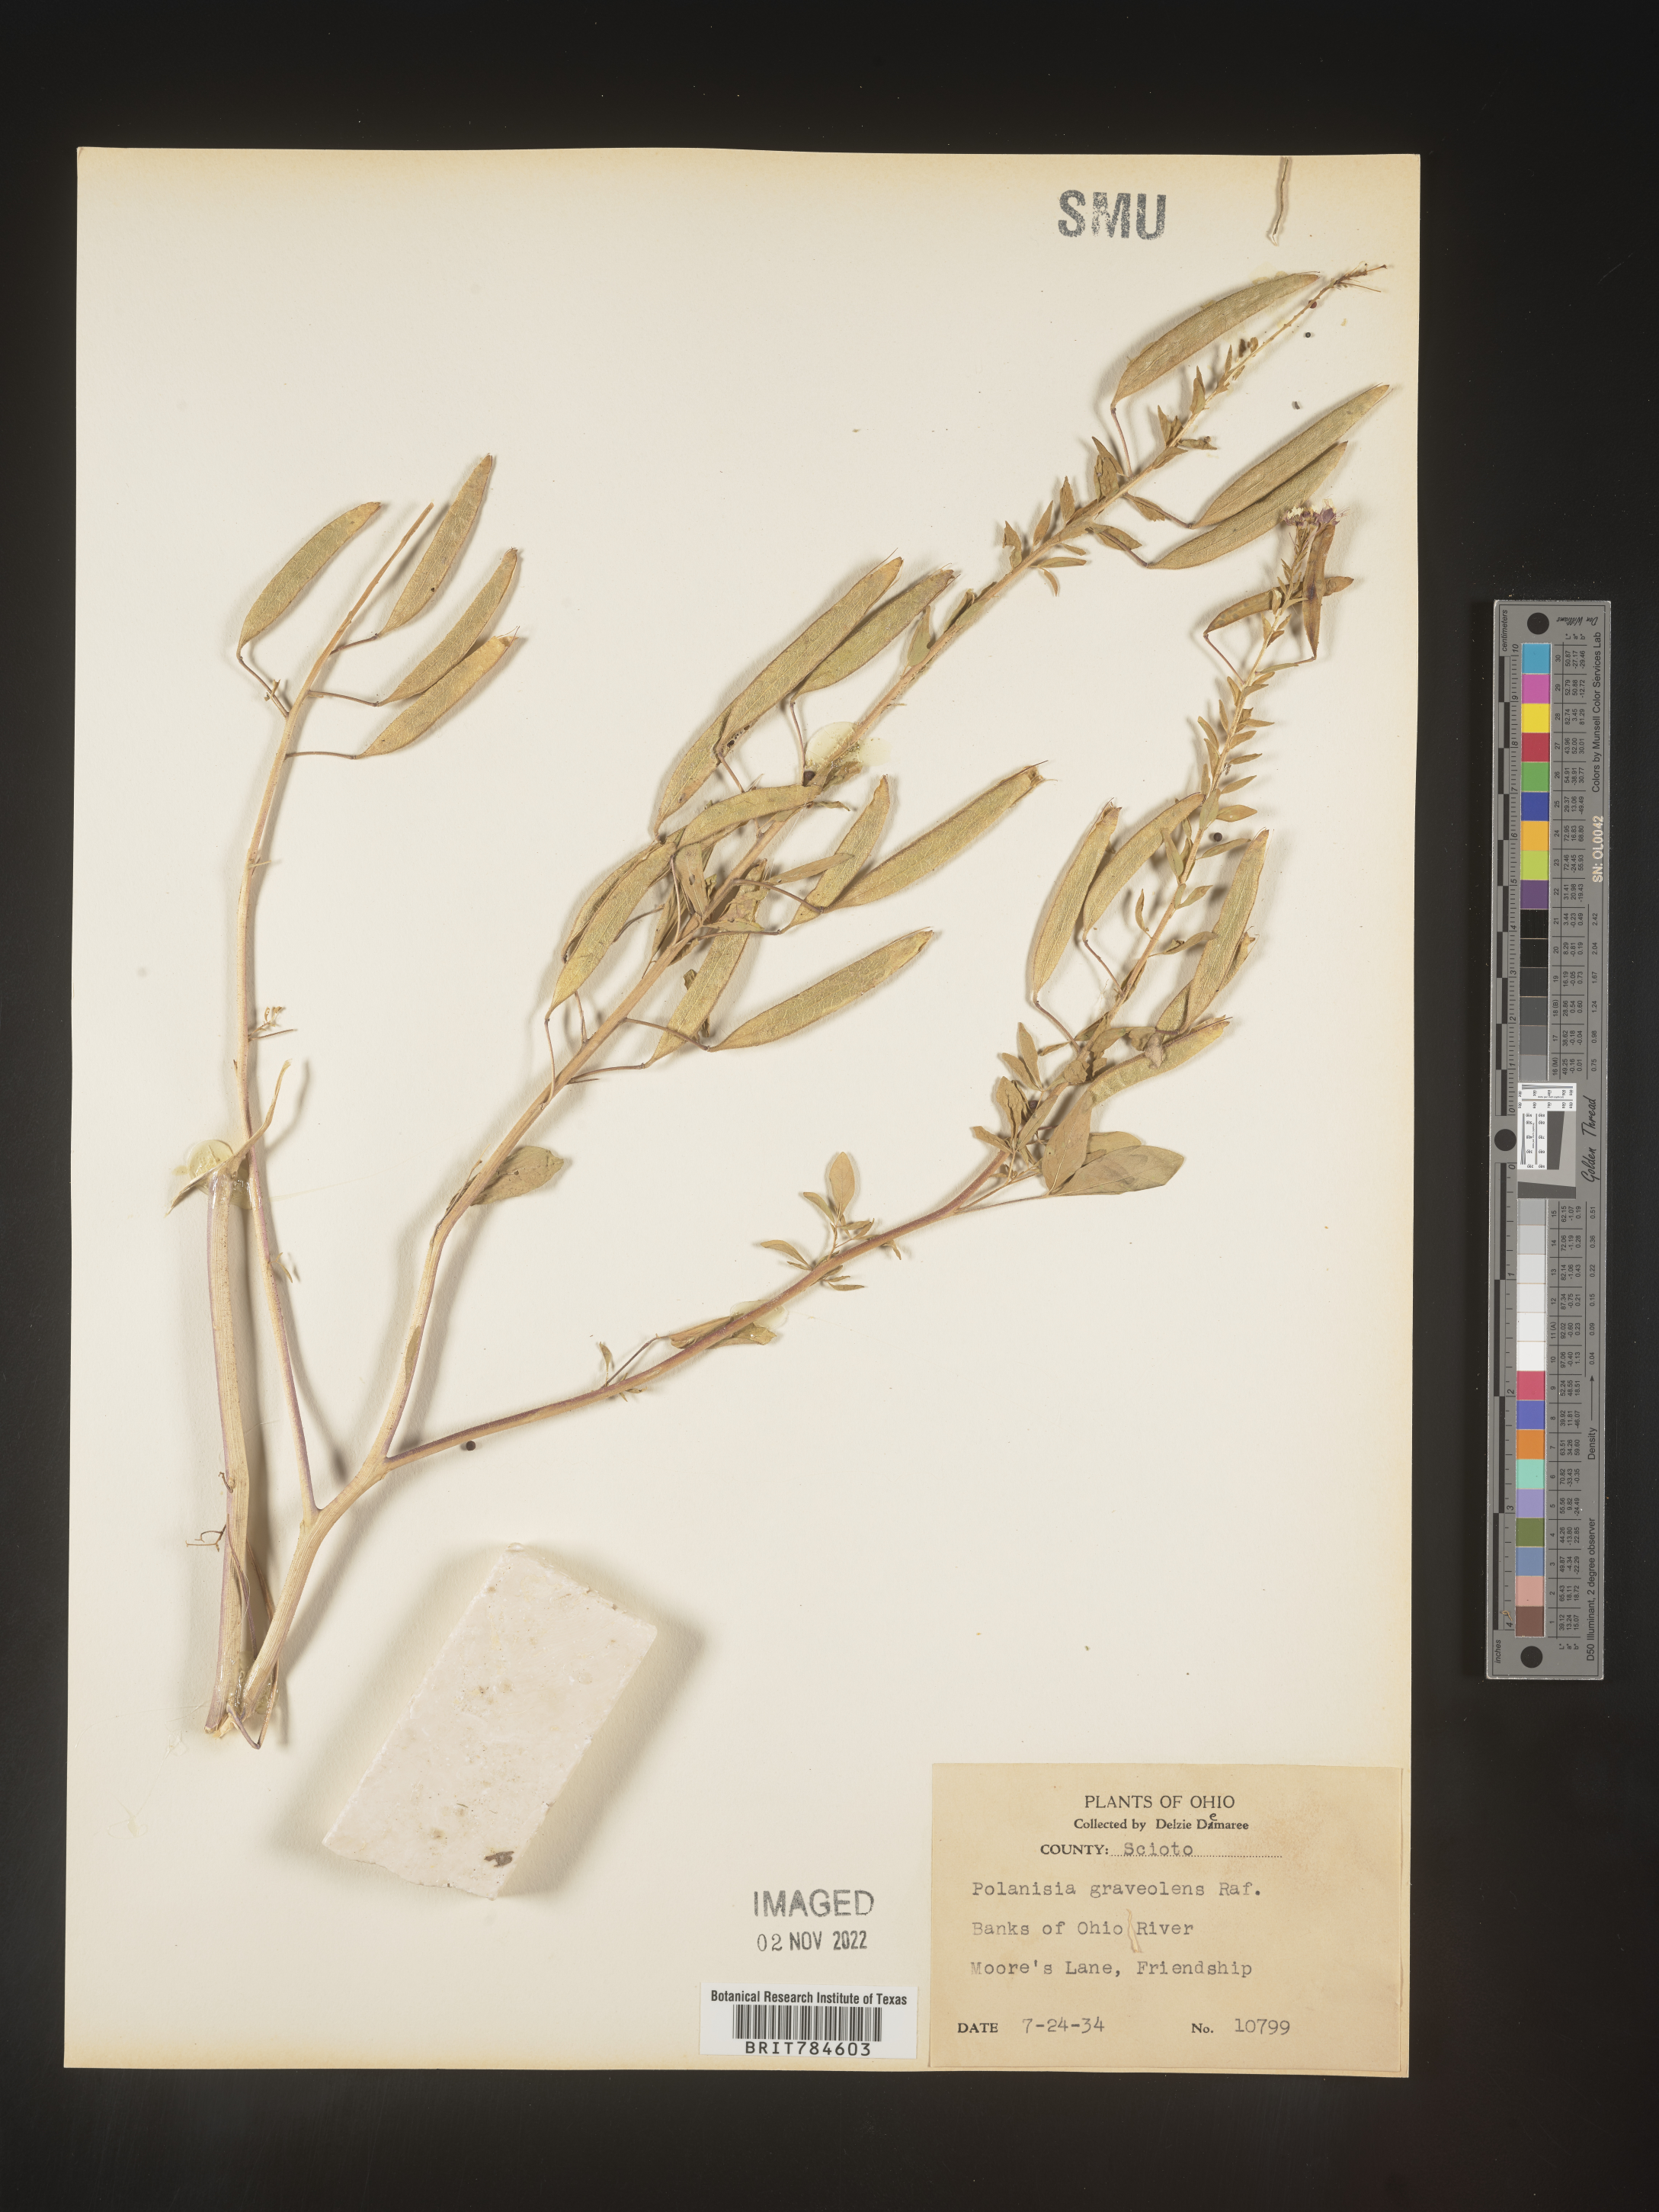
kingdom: Plantae
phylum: Tracheophyta
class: Magnoliopsida
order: Brassicales
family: Cleomaceae
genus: Polanisia
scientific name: Polanisia dodecandra
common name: Clammyweed
